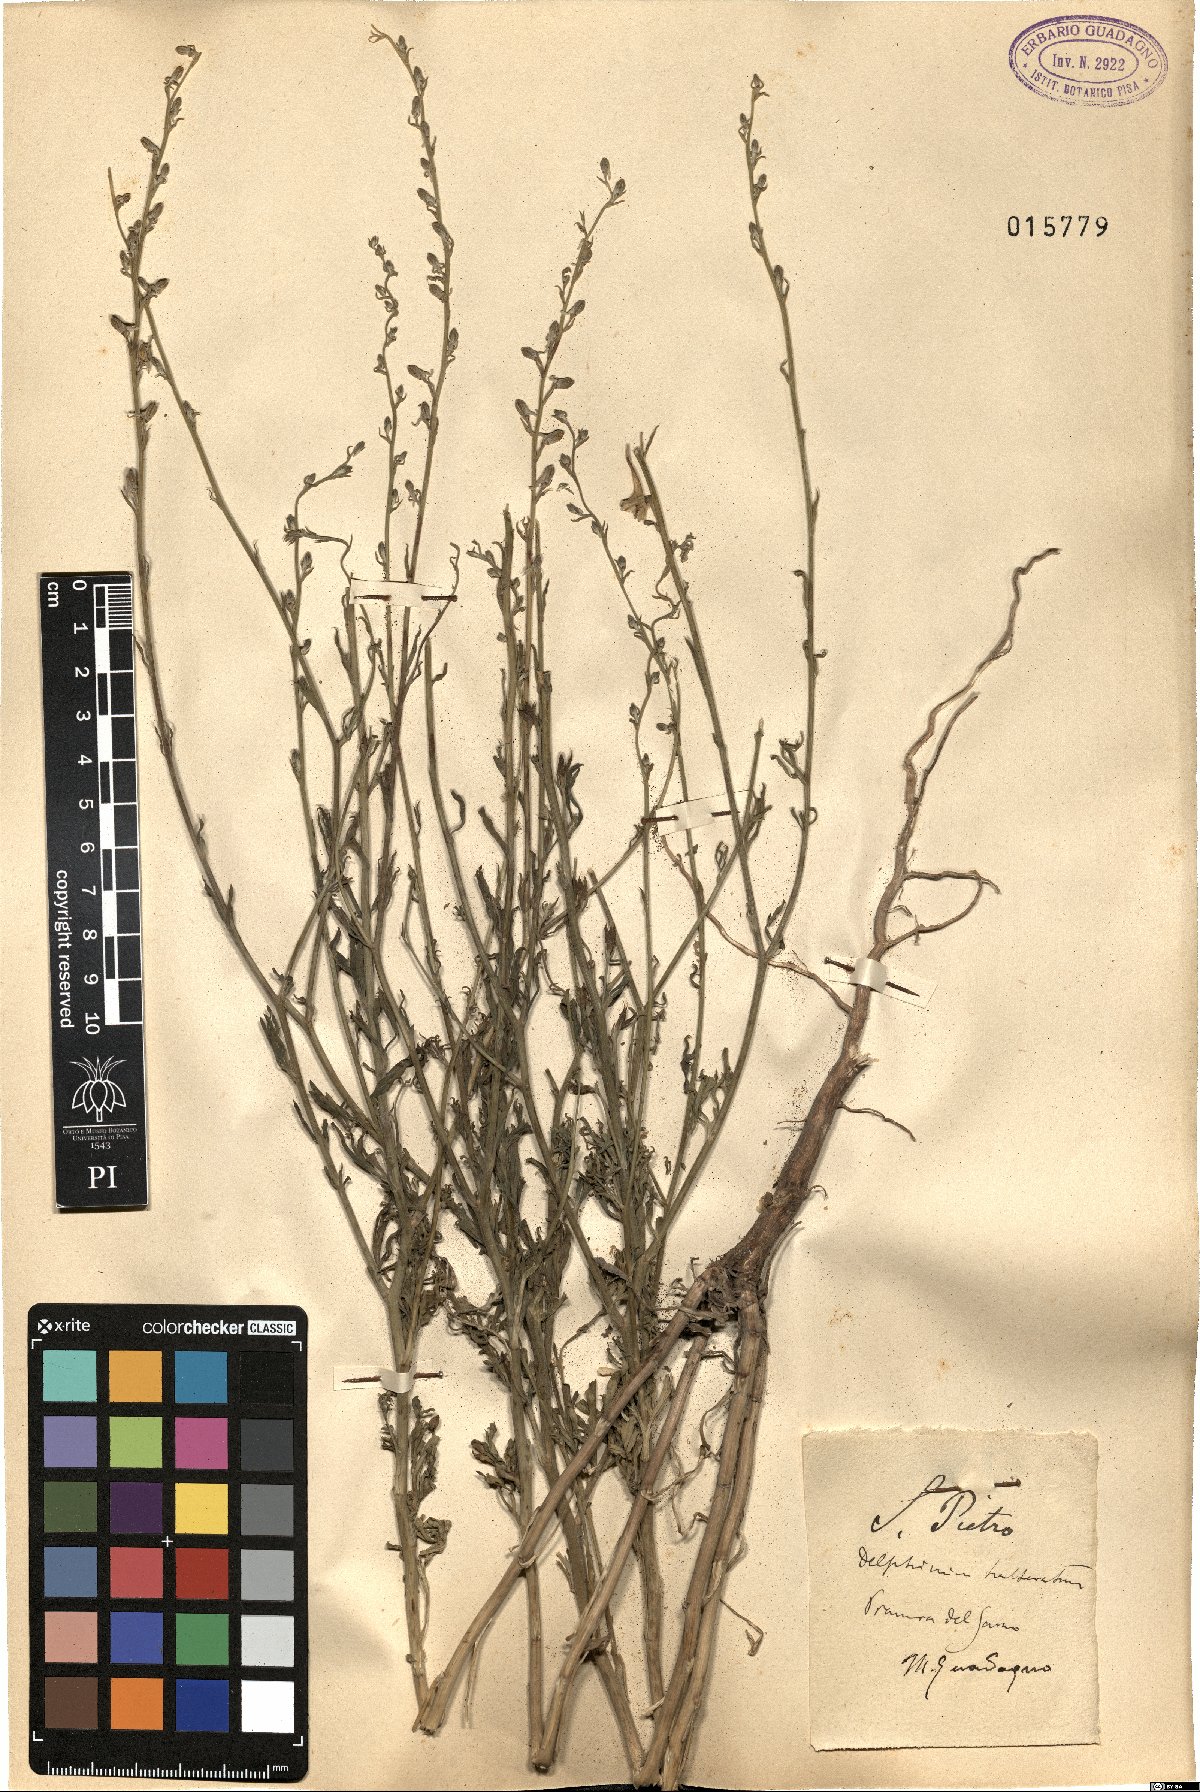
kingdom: Plantae
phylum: Tracheophyta
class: Magnoliopsida
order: Ranunculales
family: Ranunculaceae
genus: Delphinium
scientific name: Delphinium halteratum
